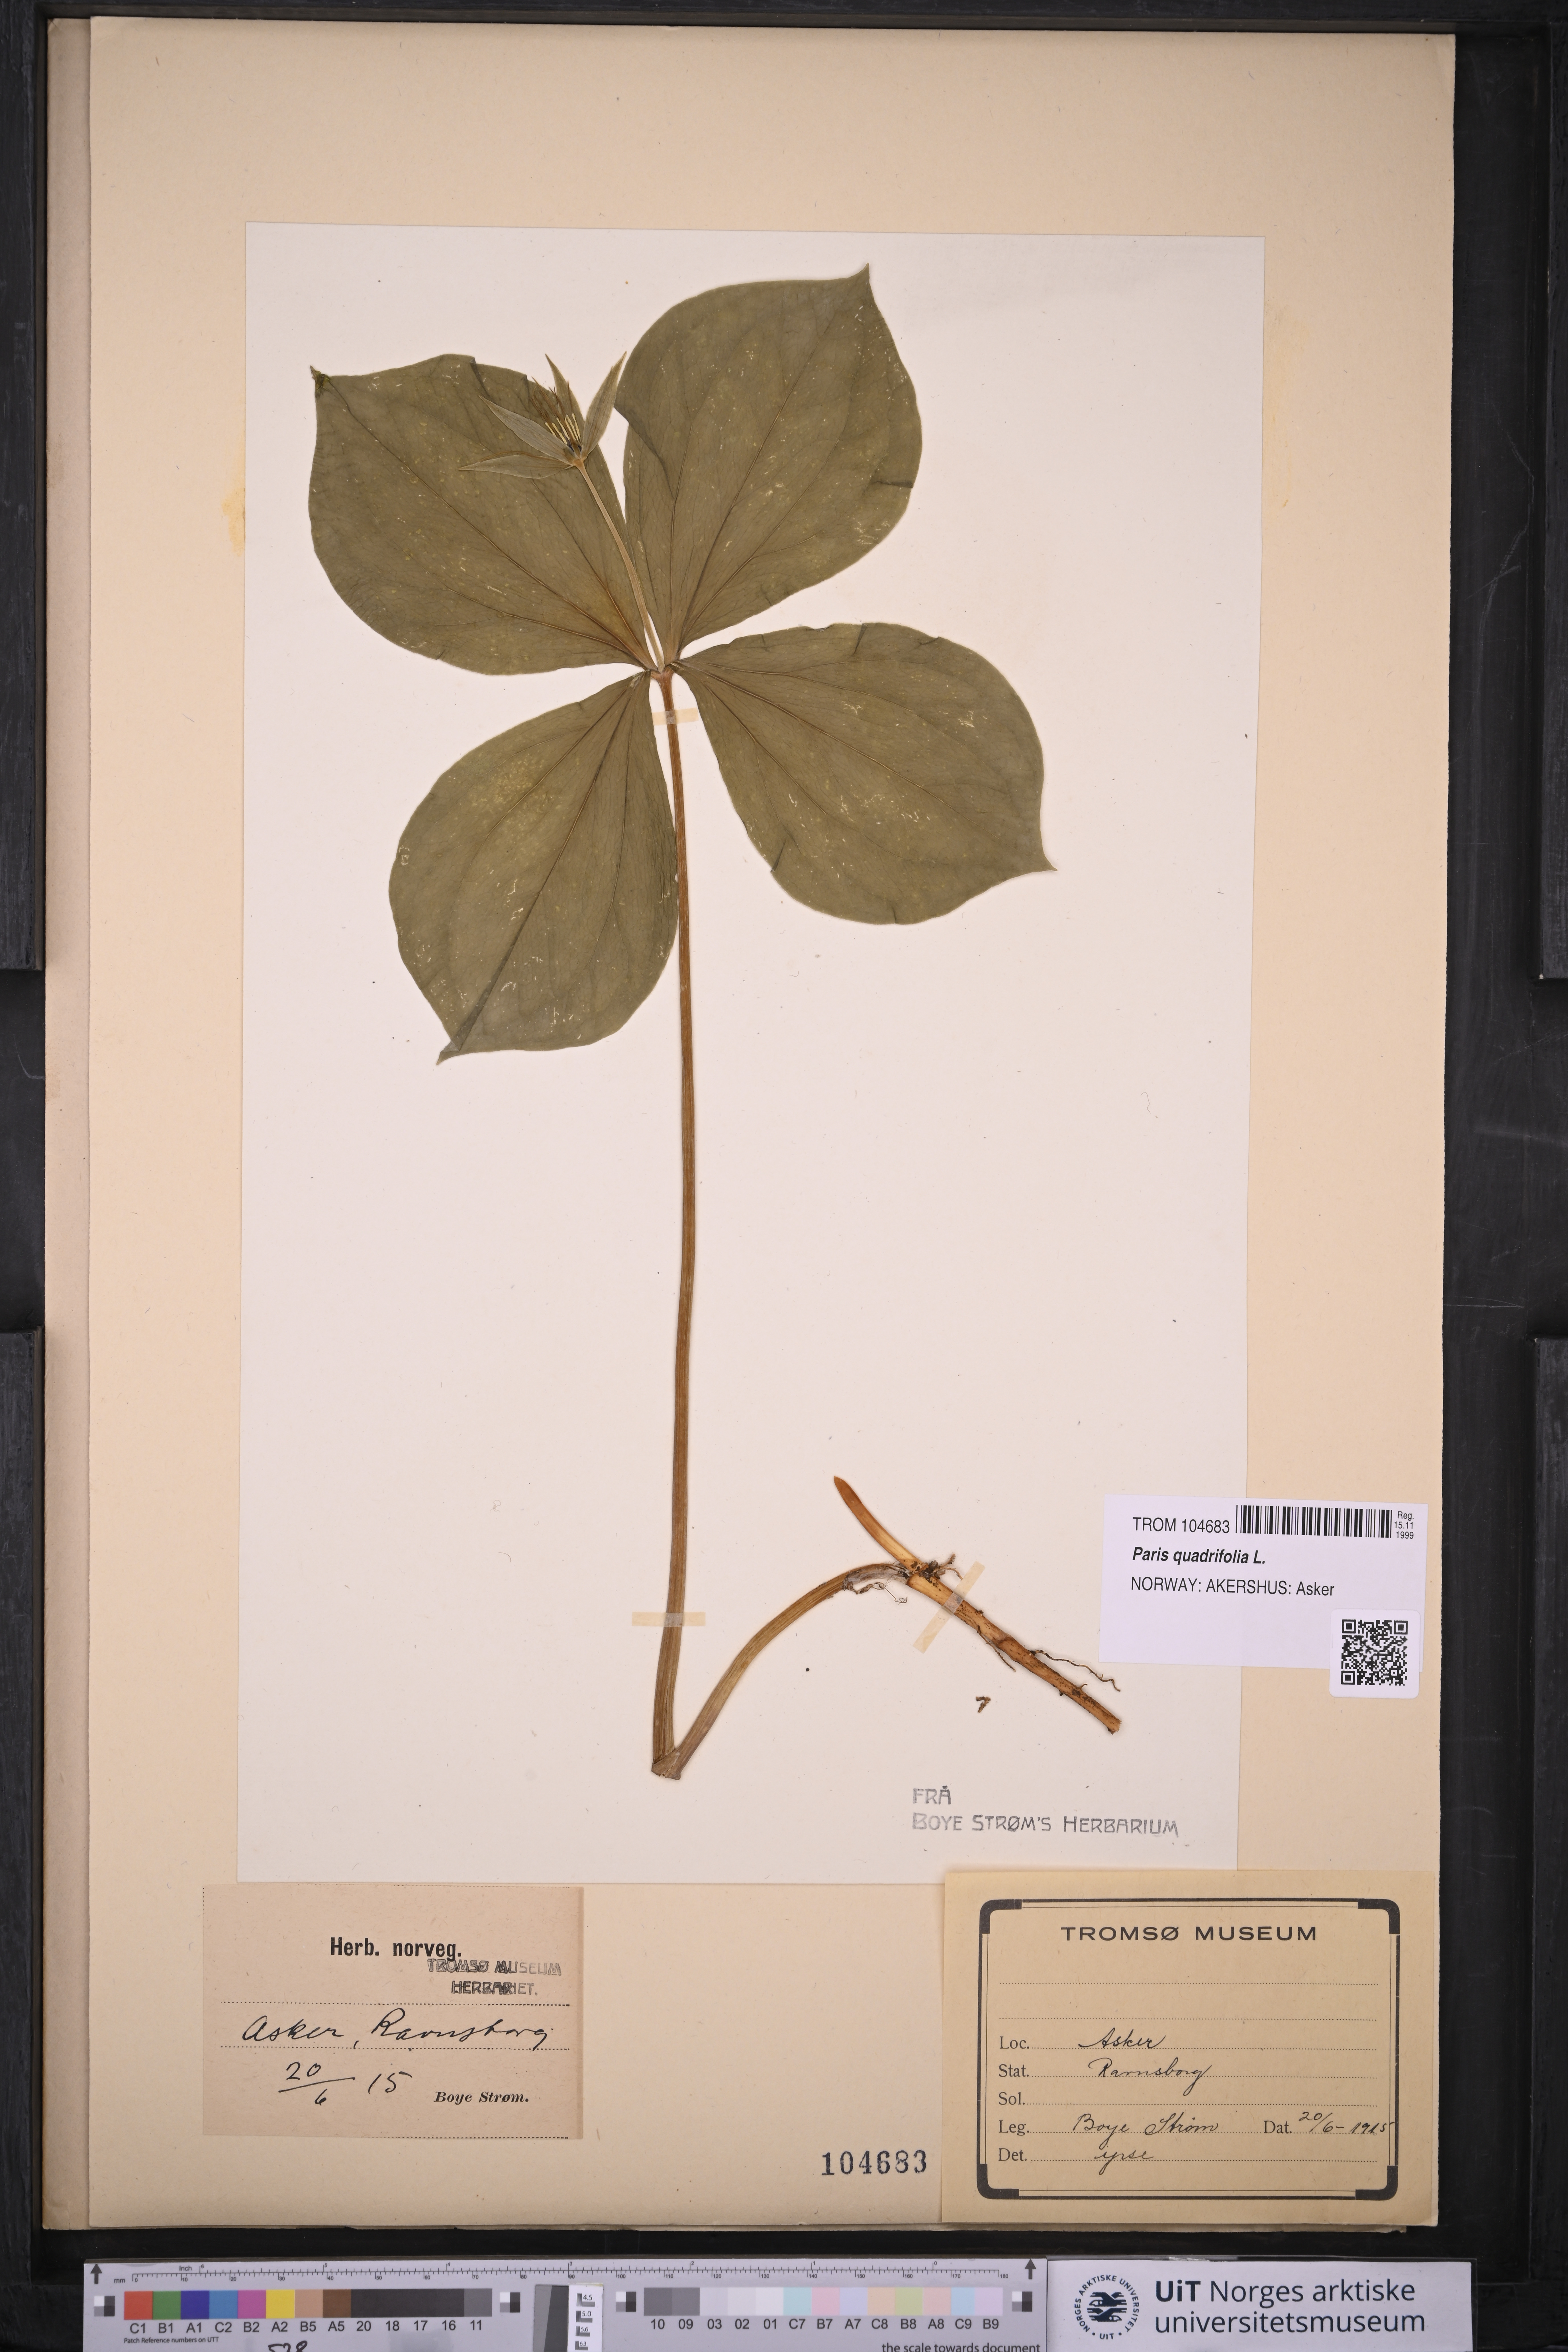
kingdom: Plantae
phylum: Tracheophyta
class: Liliopsida
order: Liliales
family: Melanthiaceae
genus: Paris
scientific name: Paris quadrifolia
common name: Herb-paris
